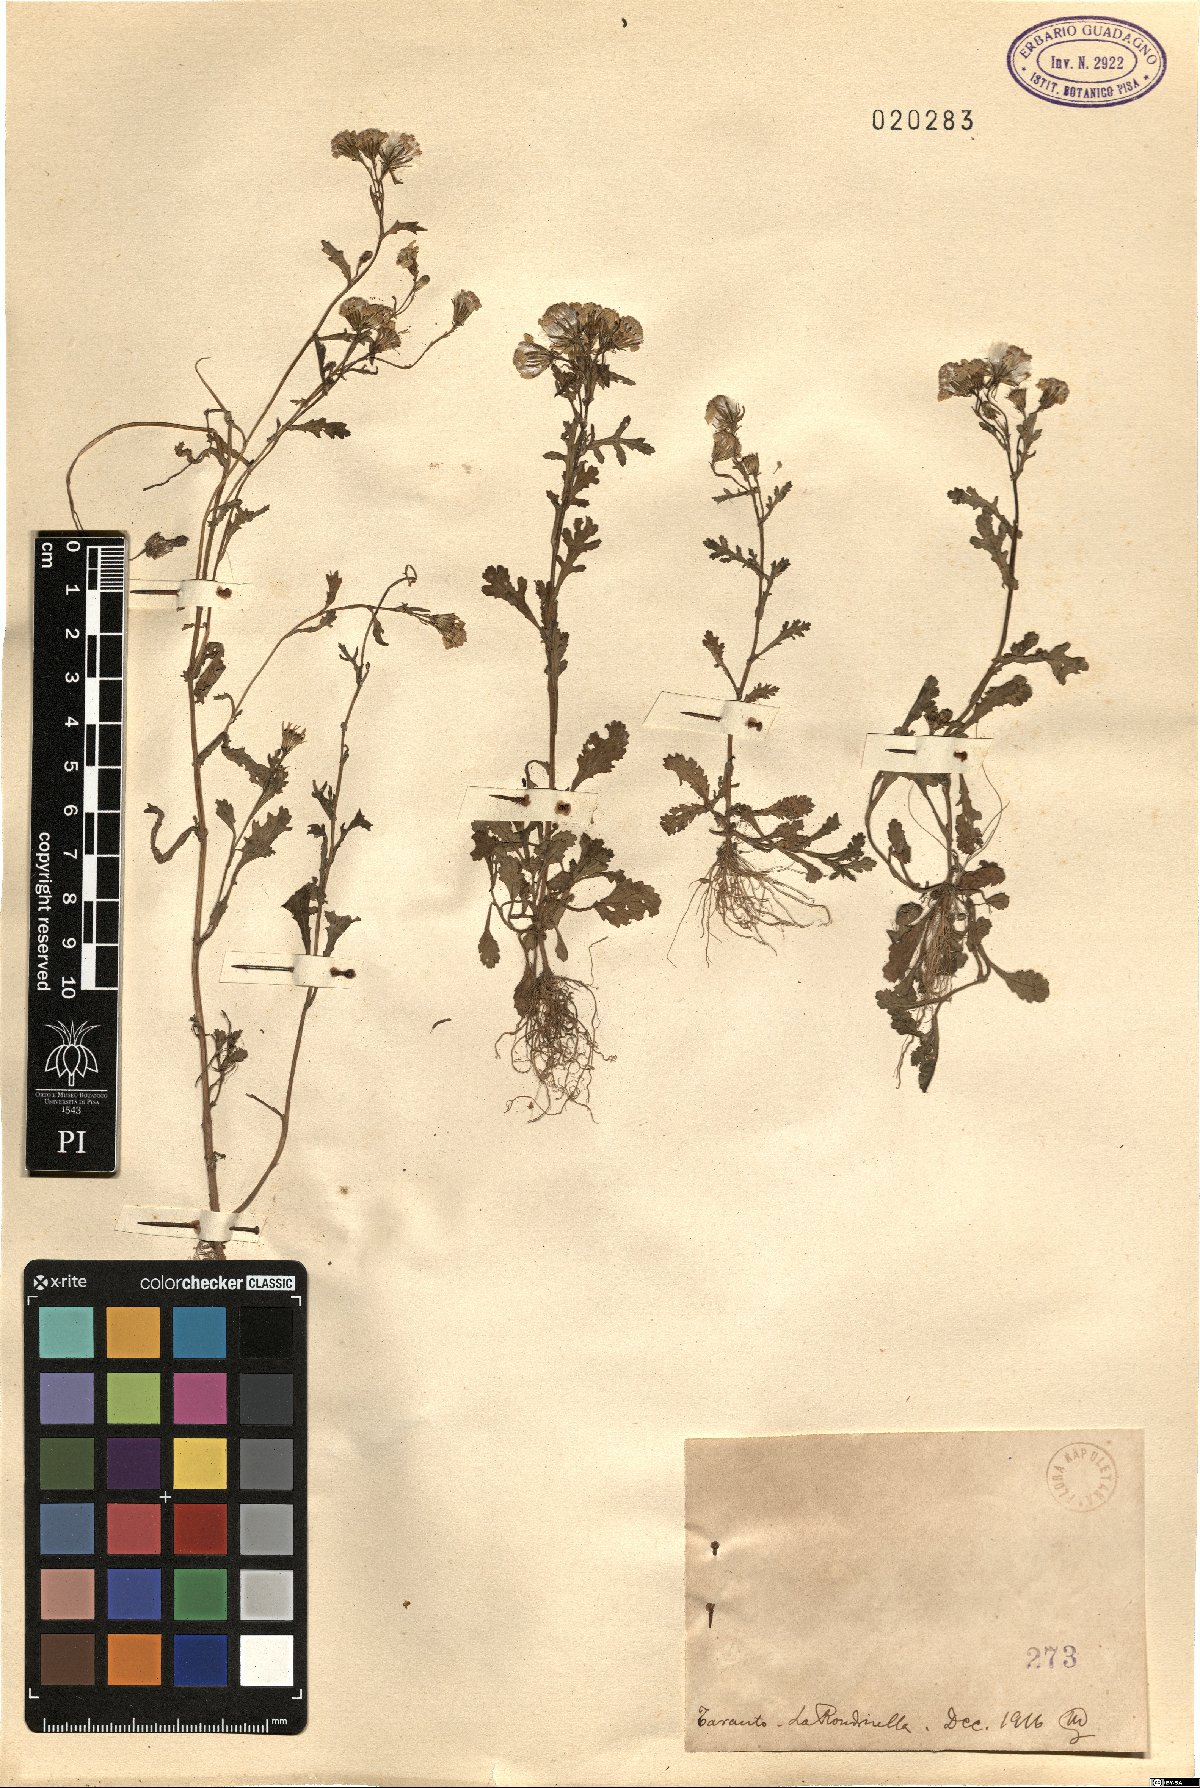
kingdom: Plantae
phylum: Tracheophyta
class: Magnoliopsida
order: Asterales
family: Asteraceae
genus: Senecio
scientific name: Senecio
